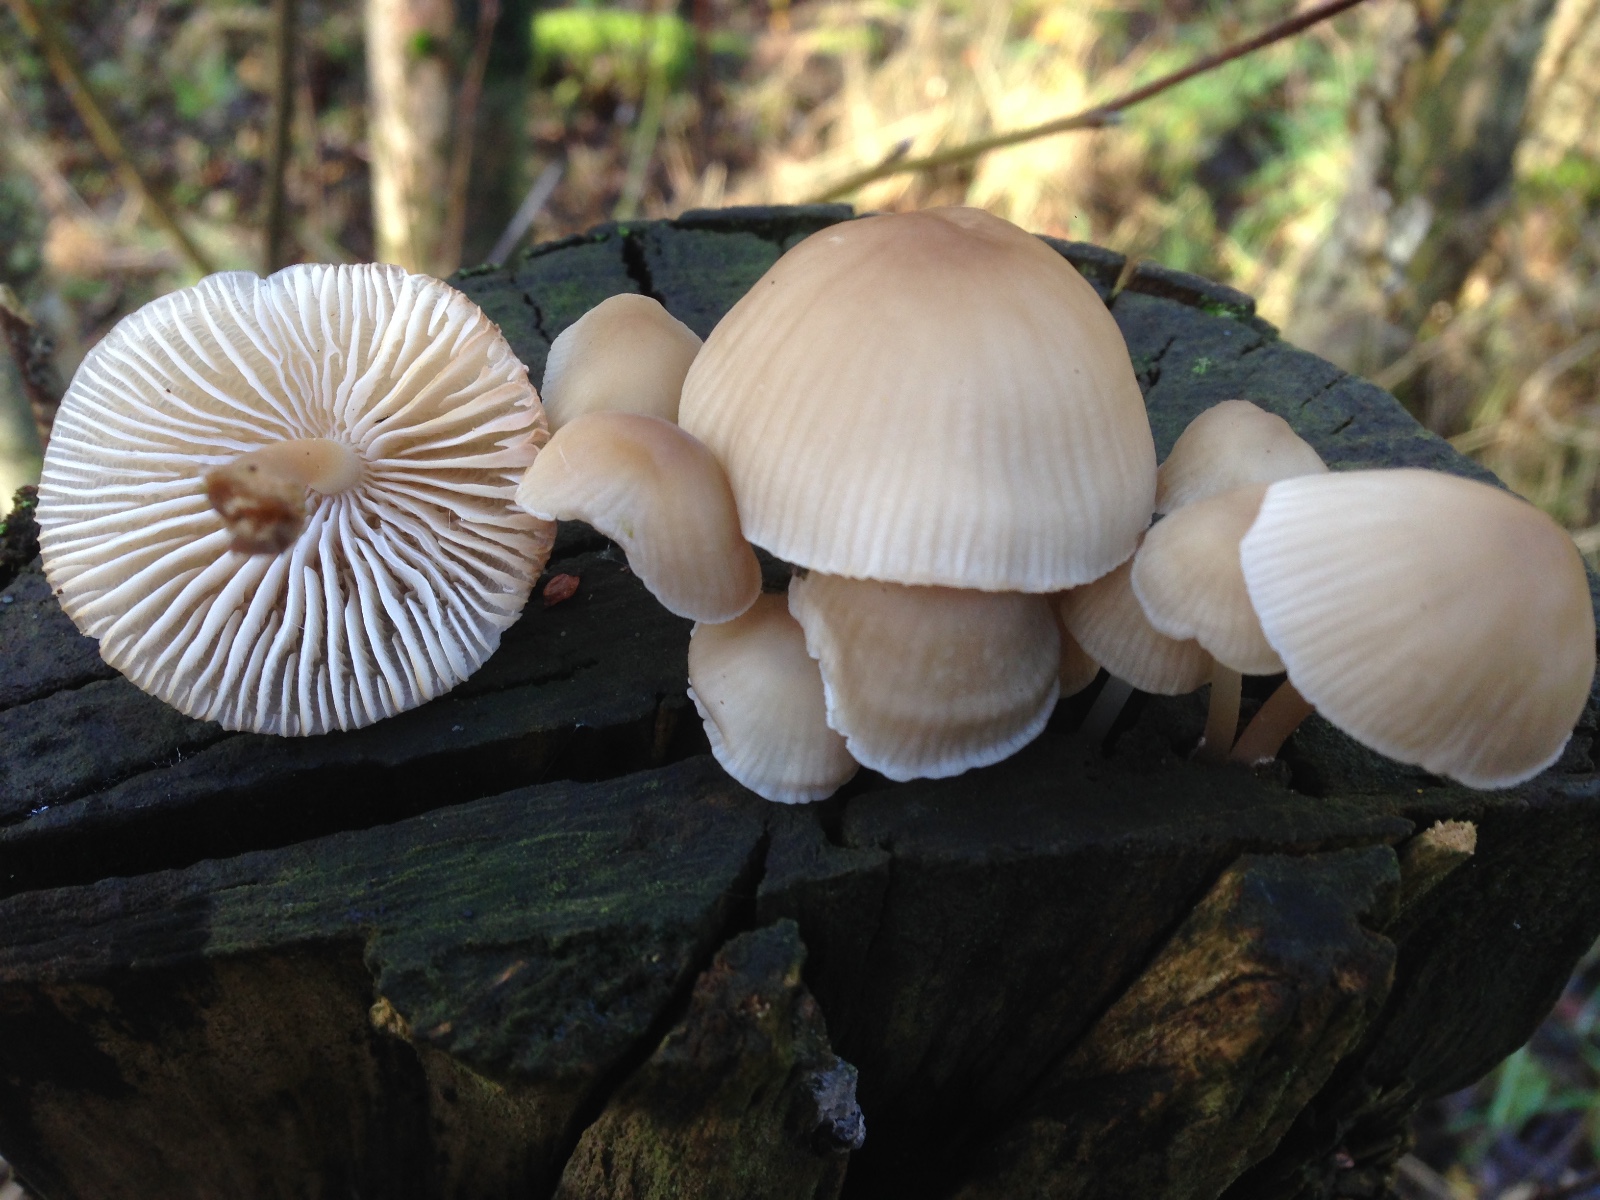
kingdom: Fungi
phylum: Basidiomycota
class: Agaricomycetes
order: Agaricales
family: Mycenaceae
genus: Mycena
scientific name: Mycena galericulata
